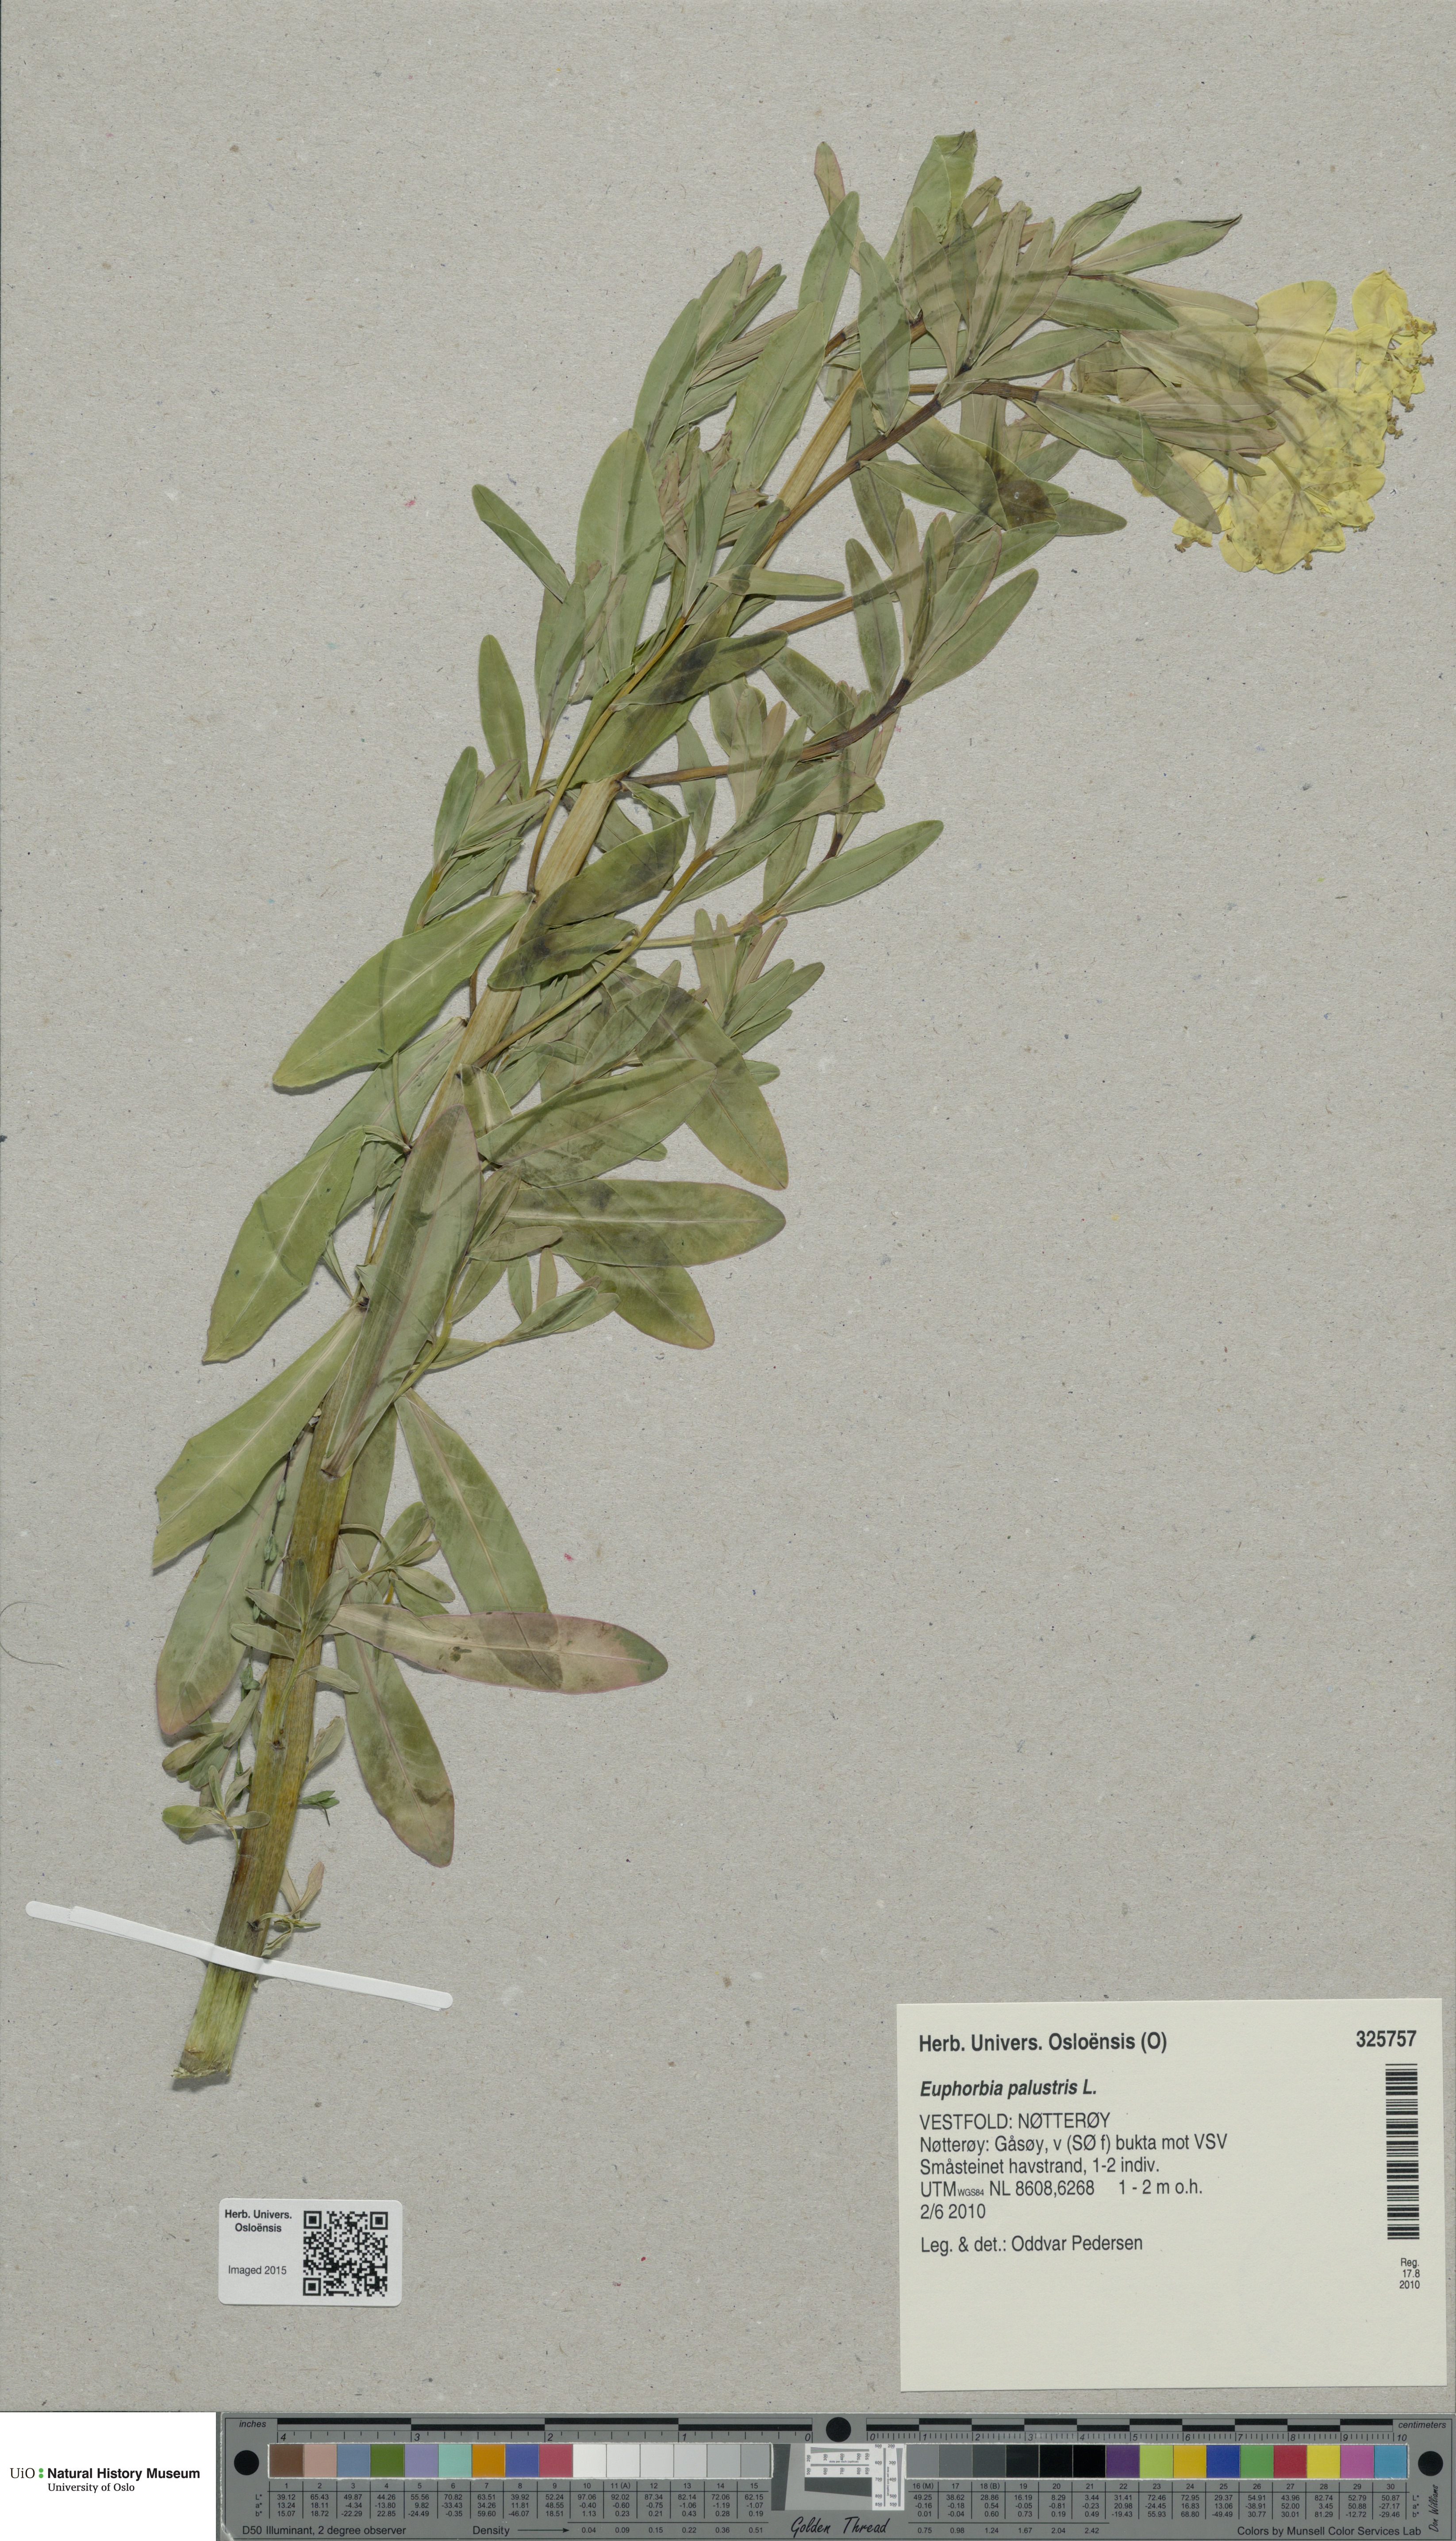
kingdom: Plantae
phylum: Tracheophyta
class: Magnoliopsida
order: Malpighiales
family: Euphorbiaceae
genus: Euphorbia
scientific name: Euphorbia palustris
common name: Marsh spurge
